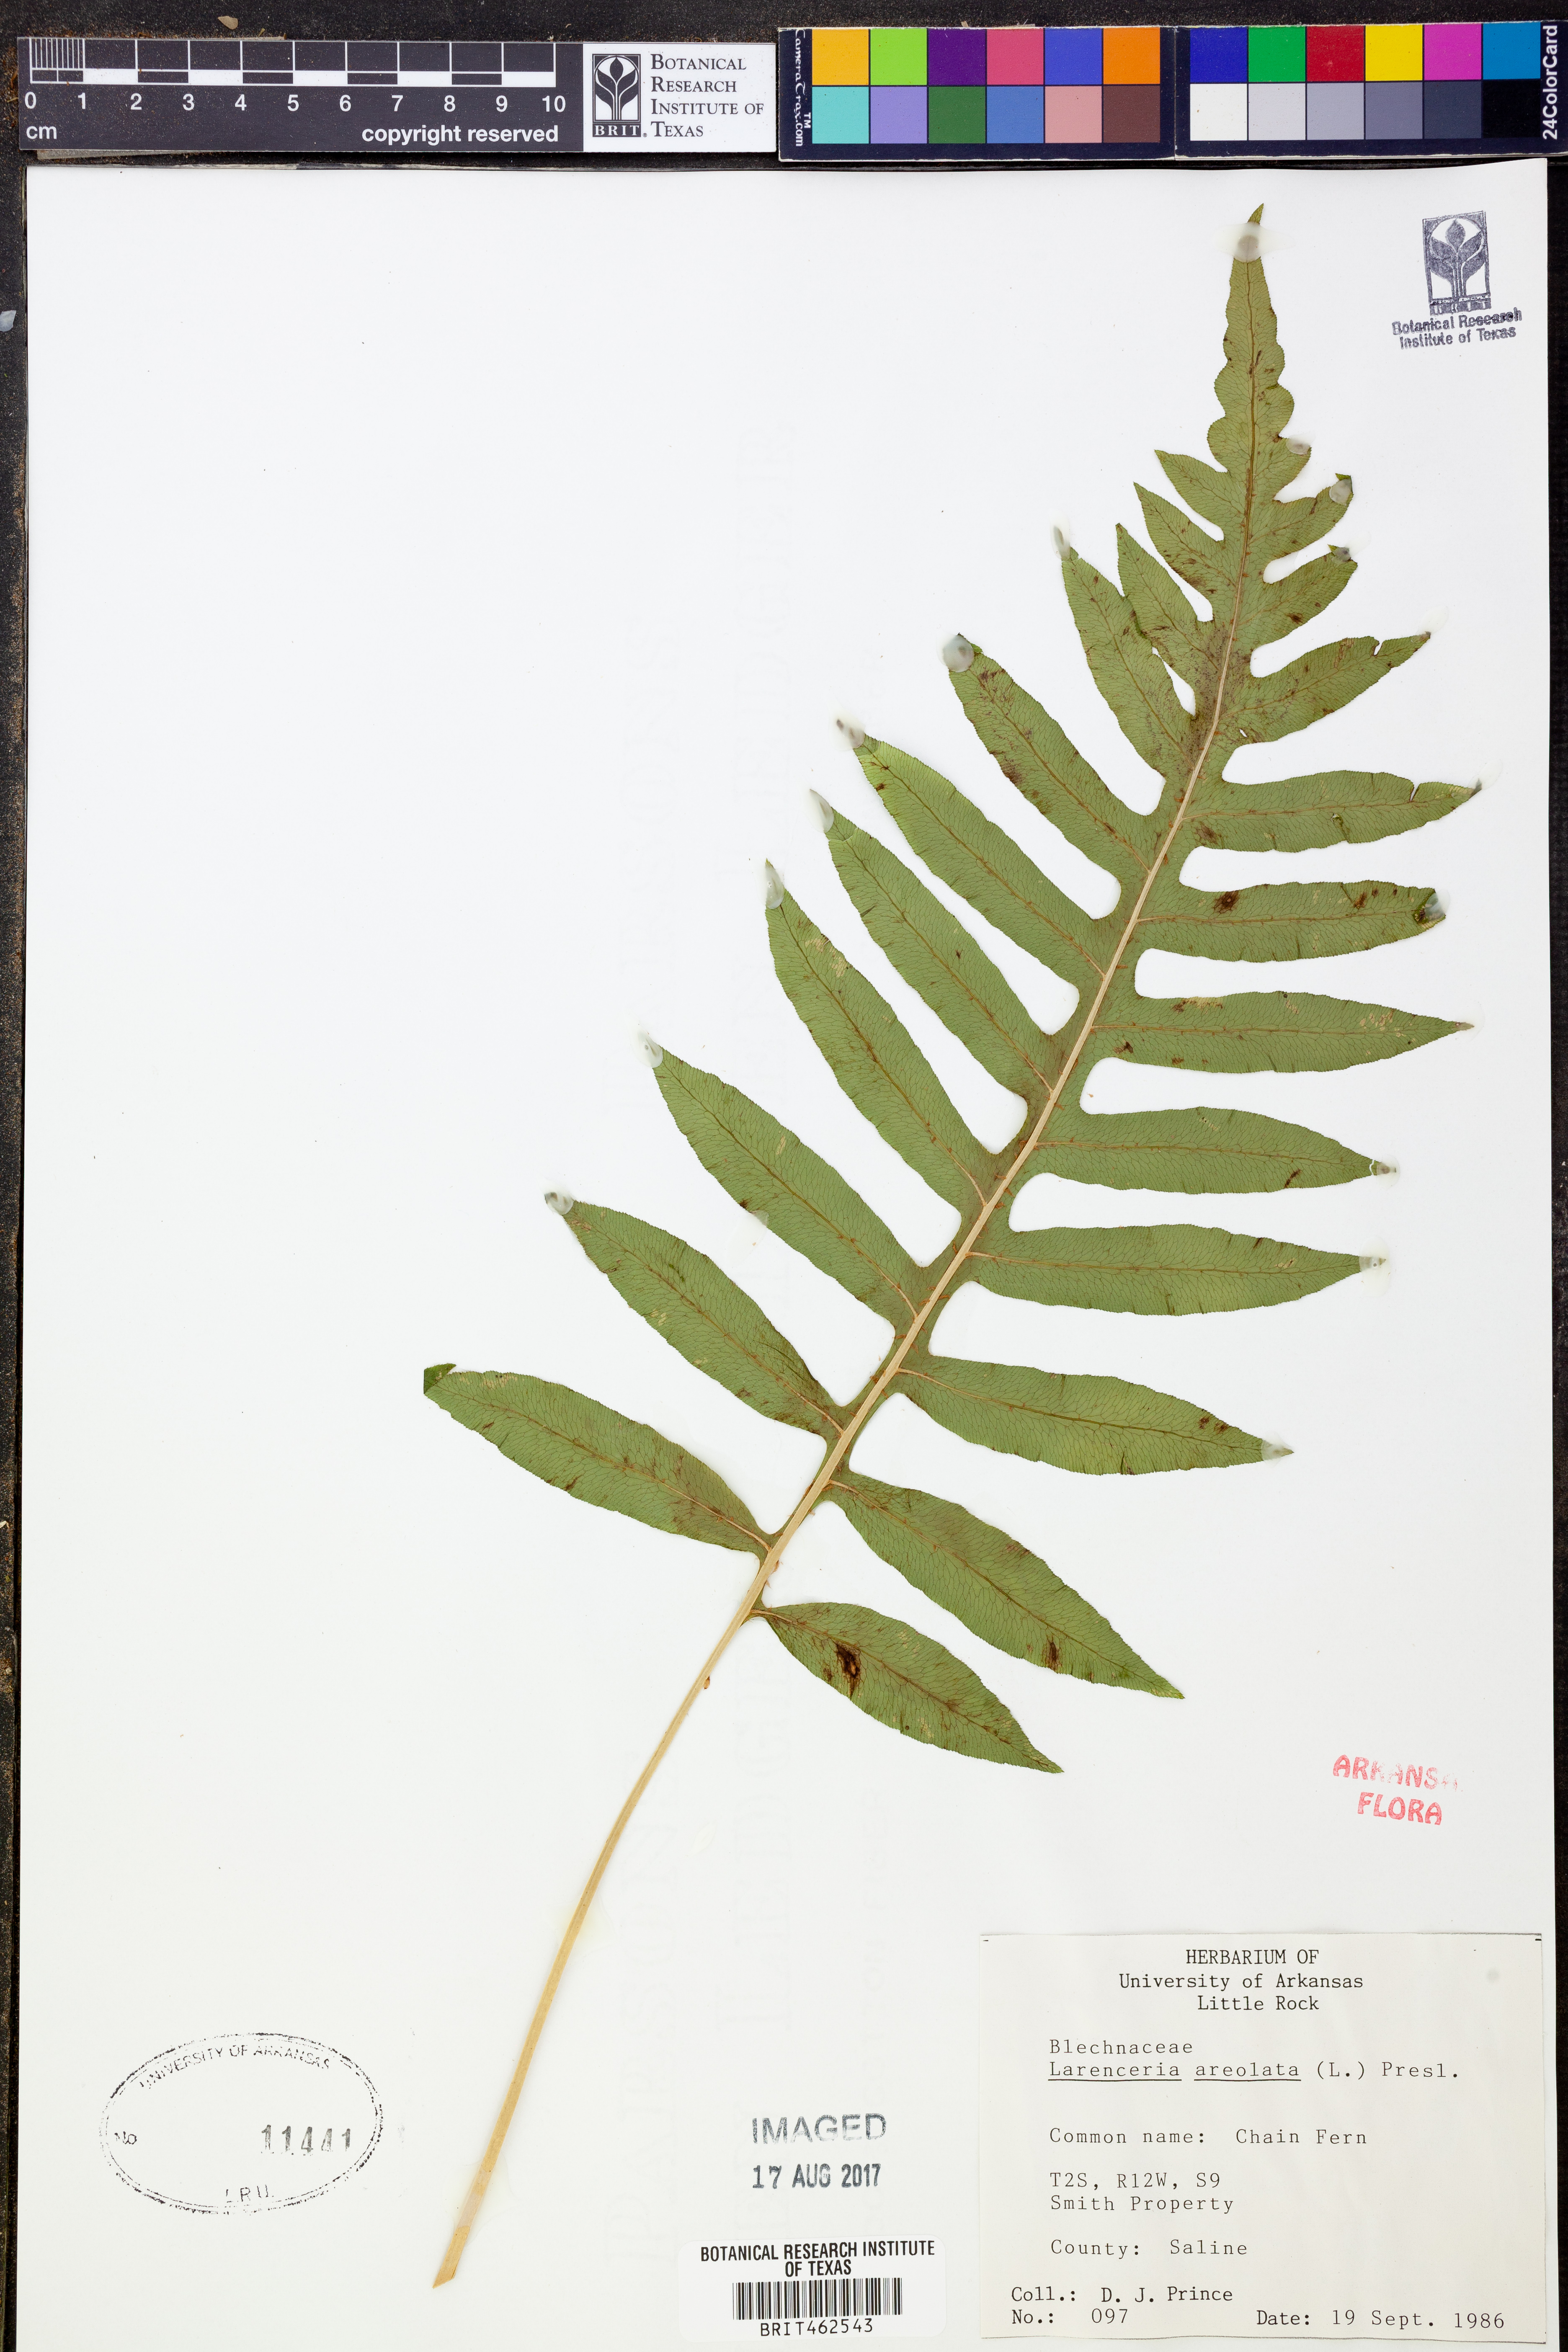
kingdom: Plantae
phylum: Tracheophyta
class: Polypodiopsida
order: Polypodiales
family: Blechnaceae
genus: Lorinseria
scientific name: Lorinseria areolata
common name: Dwarf chain fern
